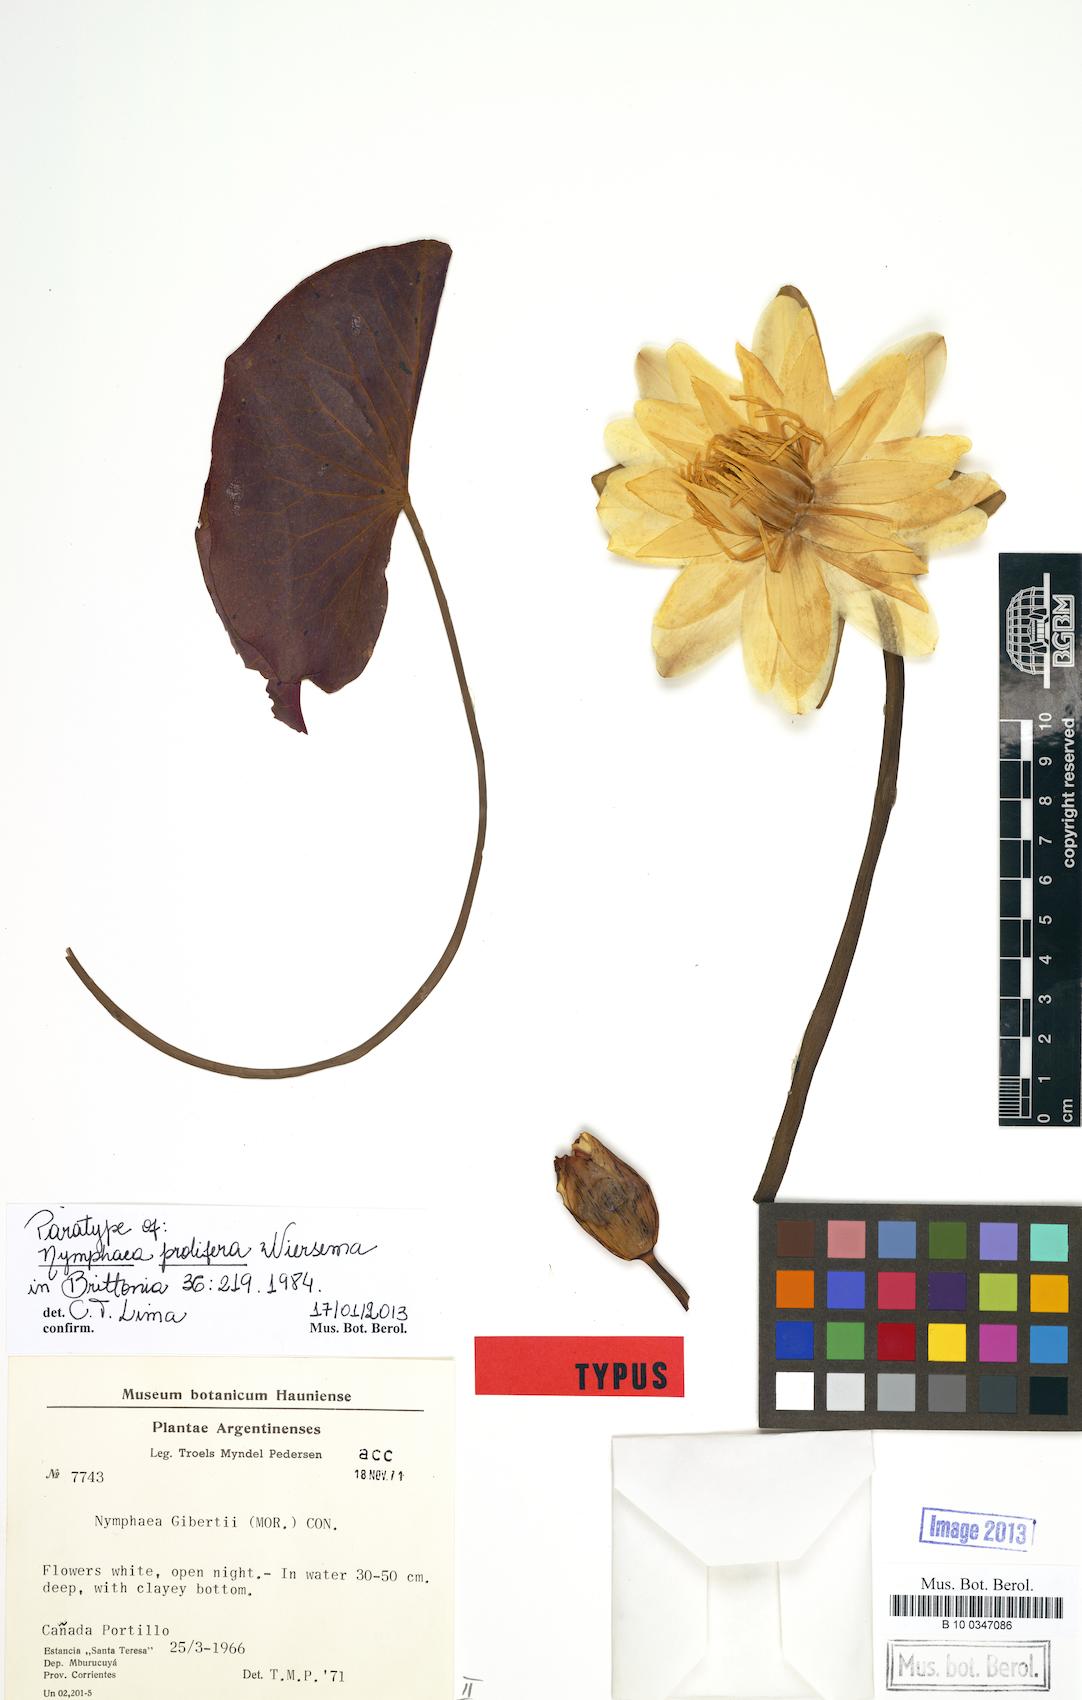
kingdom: Plantae
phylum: Tracheophyta
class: Magnoliopsida
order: Nymphaeales
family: Nymphaeaceae
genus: Nymphaea
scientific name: Nymphaea jamesoniana
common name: James' waterlily
